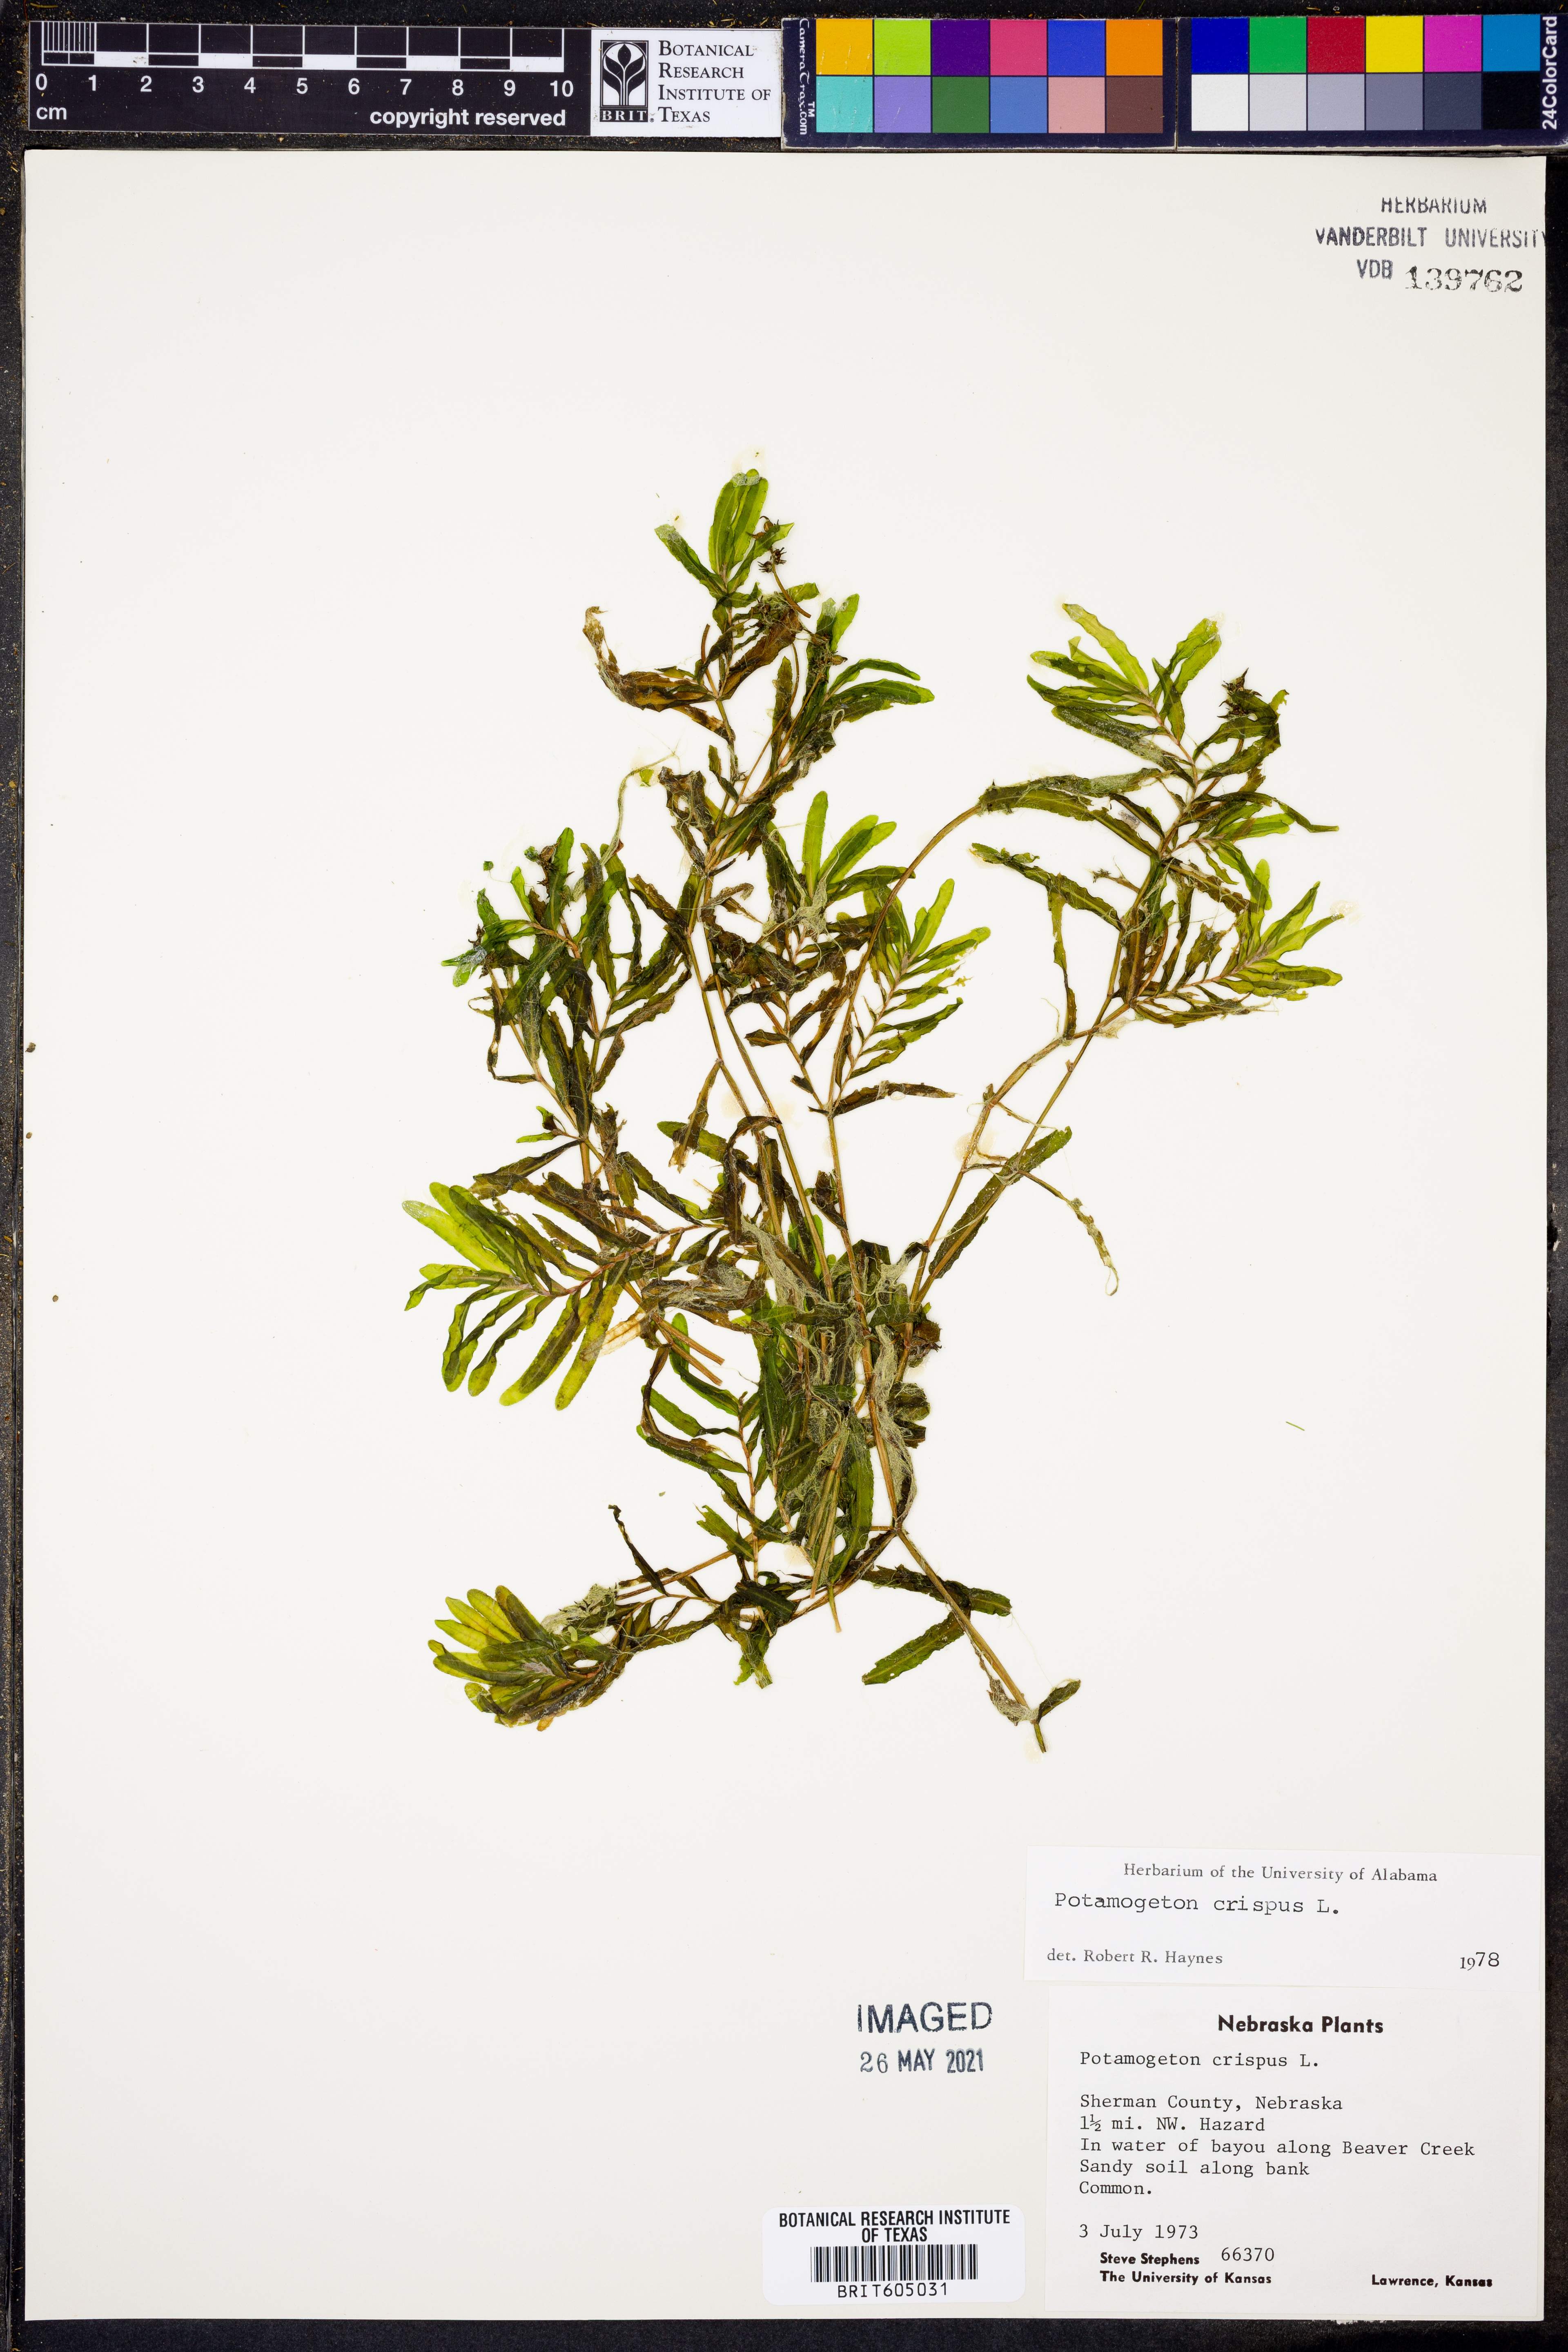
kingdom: Plantae
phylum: Tracheophyta
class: Liliopsida
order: Alismatales
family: Potamogetonaceae
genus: Potamogeton
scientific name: Potamogeton crispus
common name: Curled pondweed
